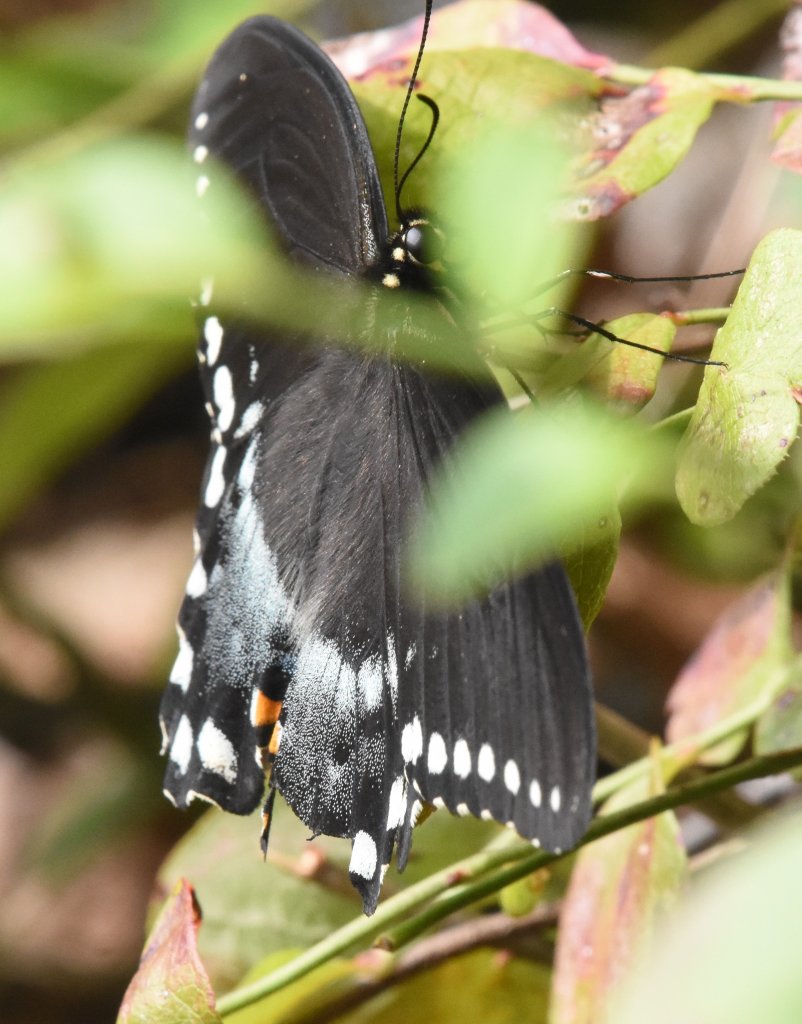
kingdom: Animalia
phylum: Arthropoda
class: Insecta
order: Lepidoptera
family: Papilionidae
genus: Pterourus
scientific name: Pterourus troilus
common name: Spicebush Swallowtail
